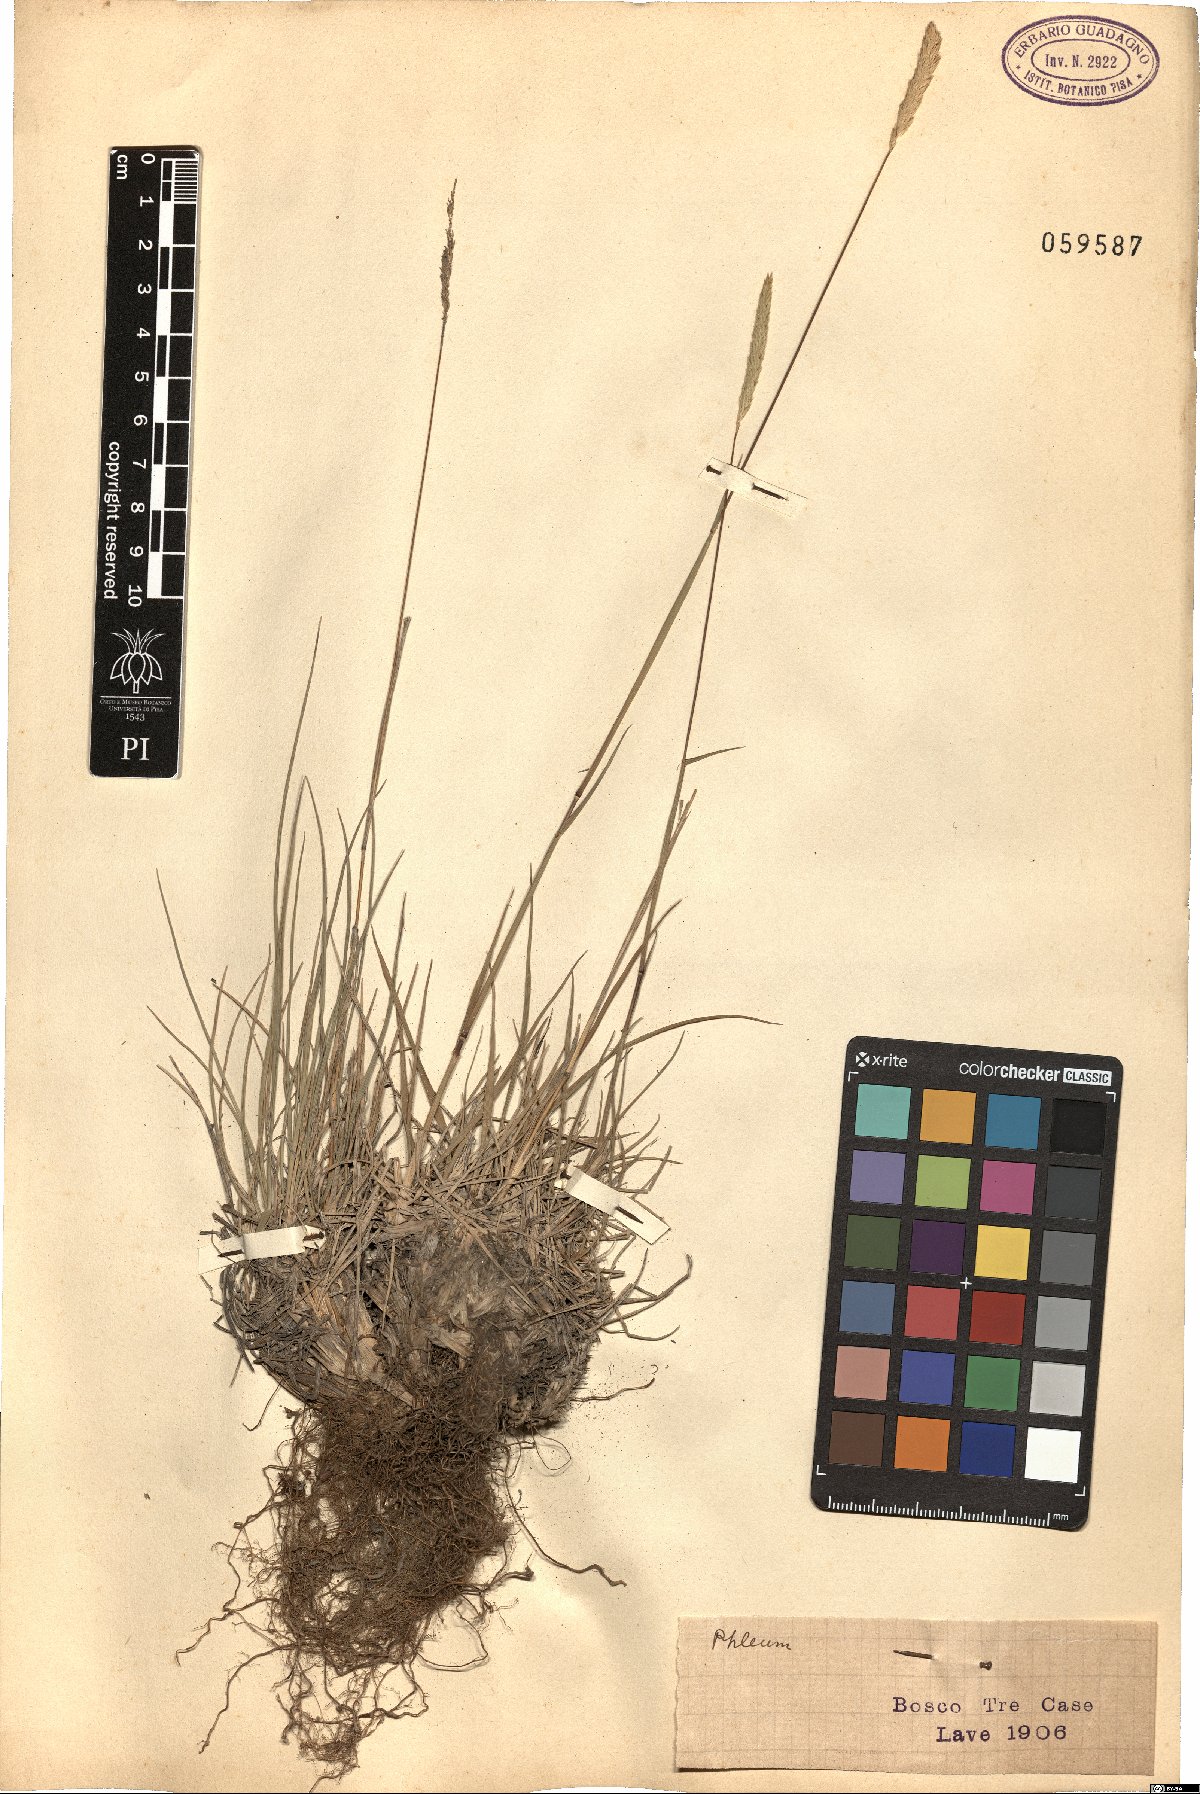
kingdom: Plantae
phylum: Tracheophyta
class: Liliopsida
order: Poales
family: Poaceae
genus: Phleum
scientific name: Phleum
